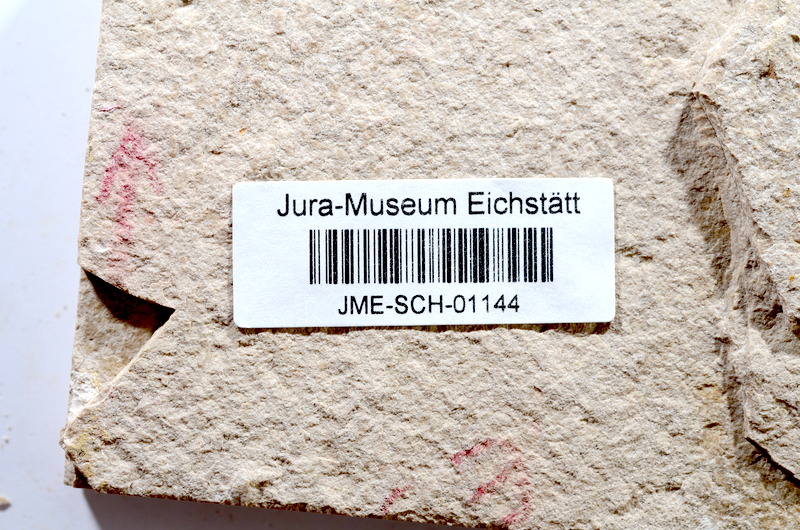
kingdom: Animalia
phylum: Chordata
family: Ascalaboidae
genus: Tharsis
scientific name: Tharsis dubius
